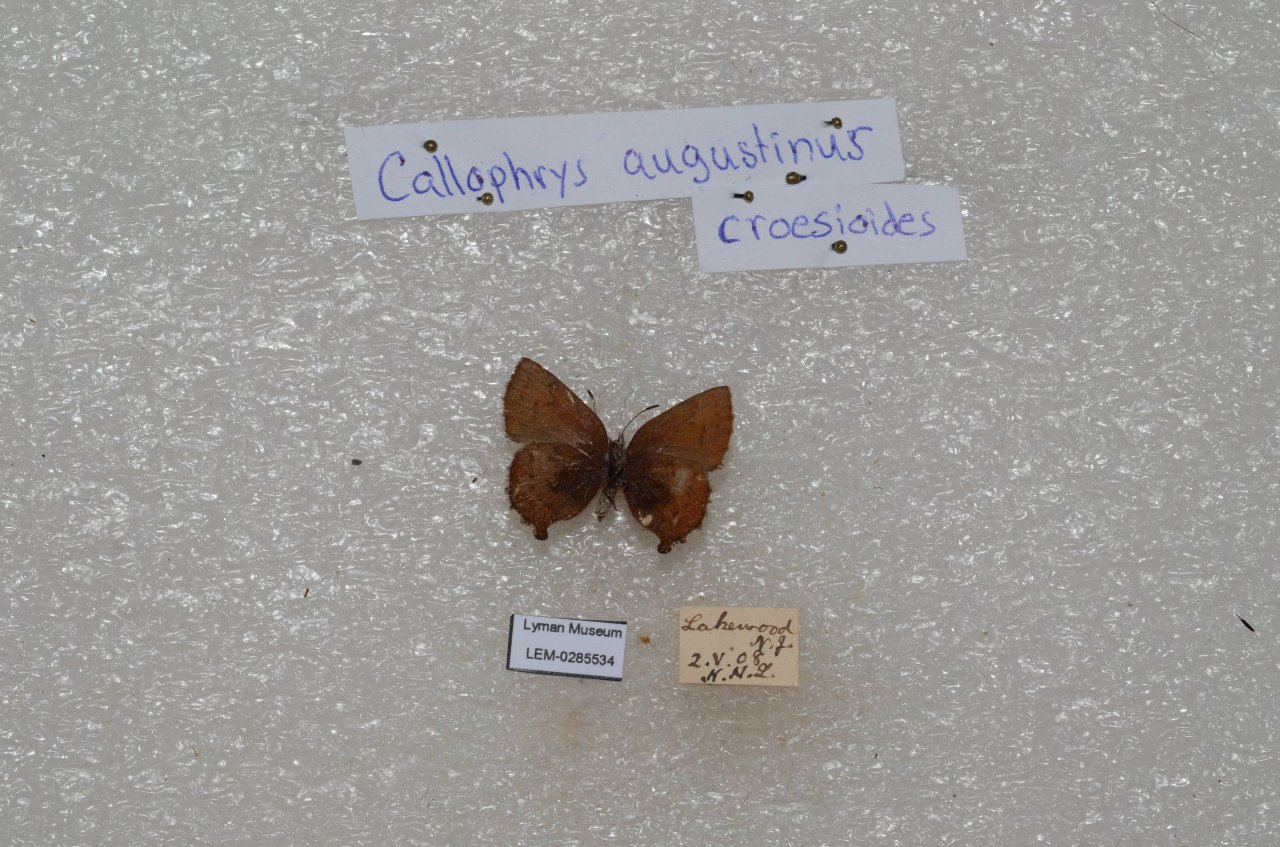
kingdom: Animalia
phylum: Arthropoda
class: Insecta
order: Lepidoptera
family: Lycaenidae
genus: Incisalia
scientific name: Incisalia irioides
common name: Brown Elfin
